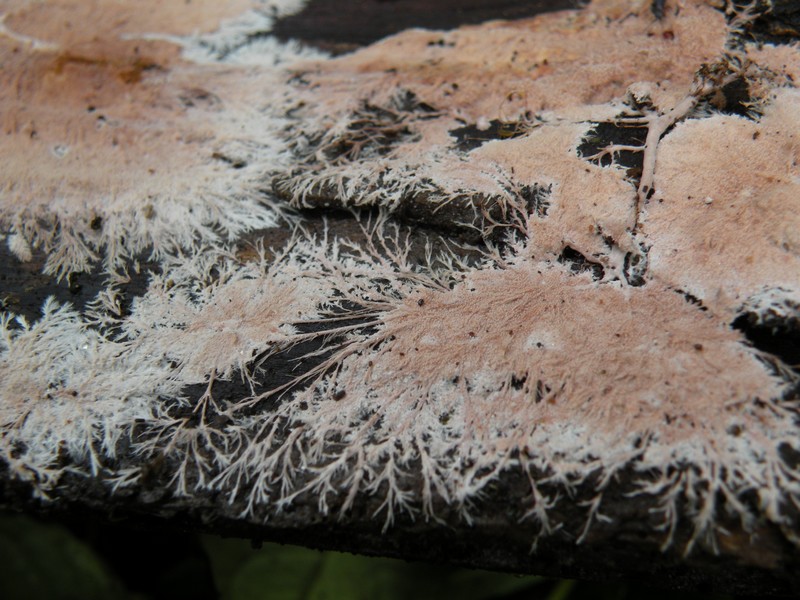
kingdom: Fungi
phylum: Basidiomycota
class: Agaricomycetes
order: Polyporales
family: Steccherinaceae
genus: Steccherinum
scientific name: Steccherinum fimbriatum
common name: trådet skønpig
